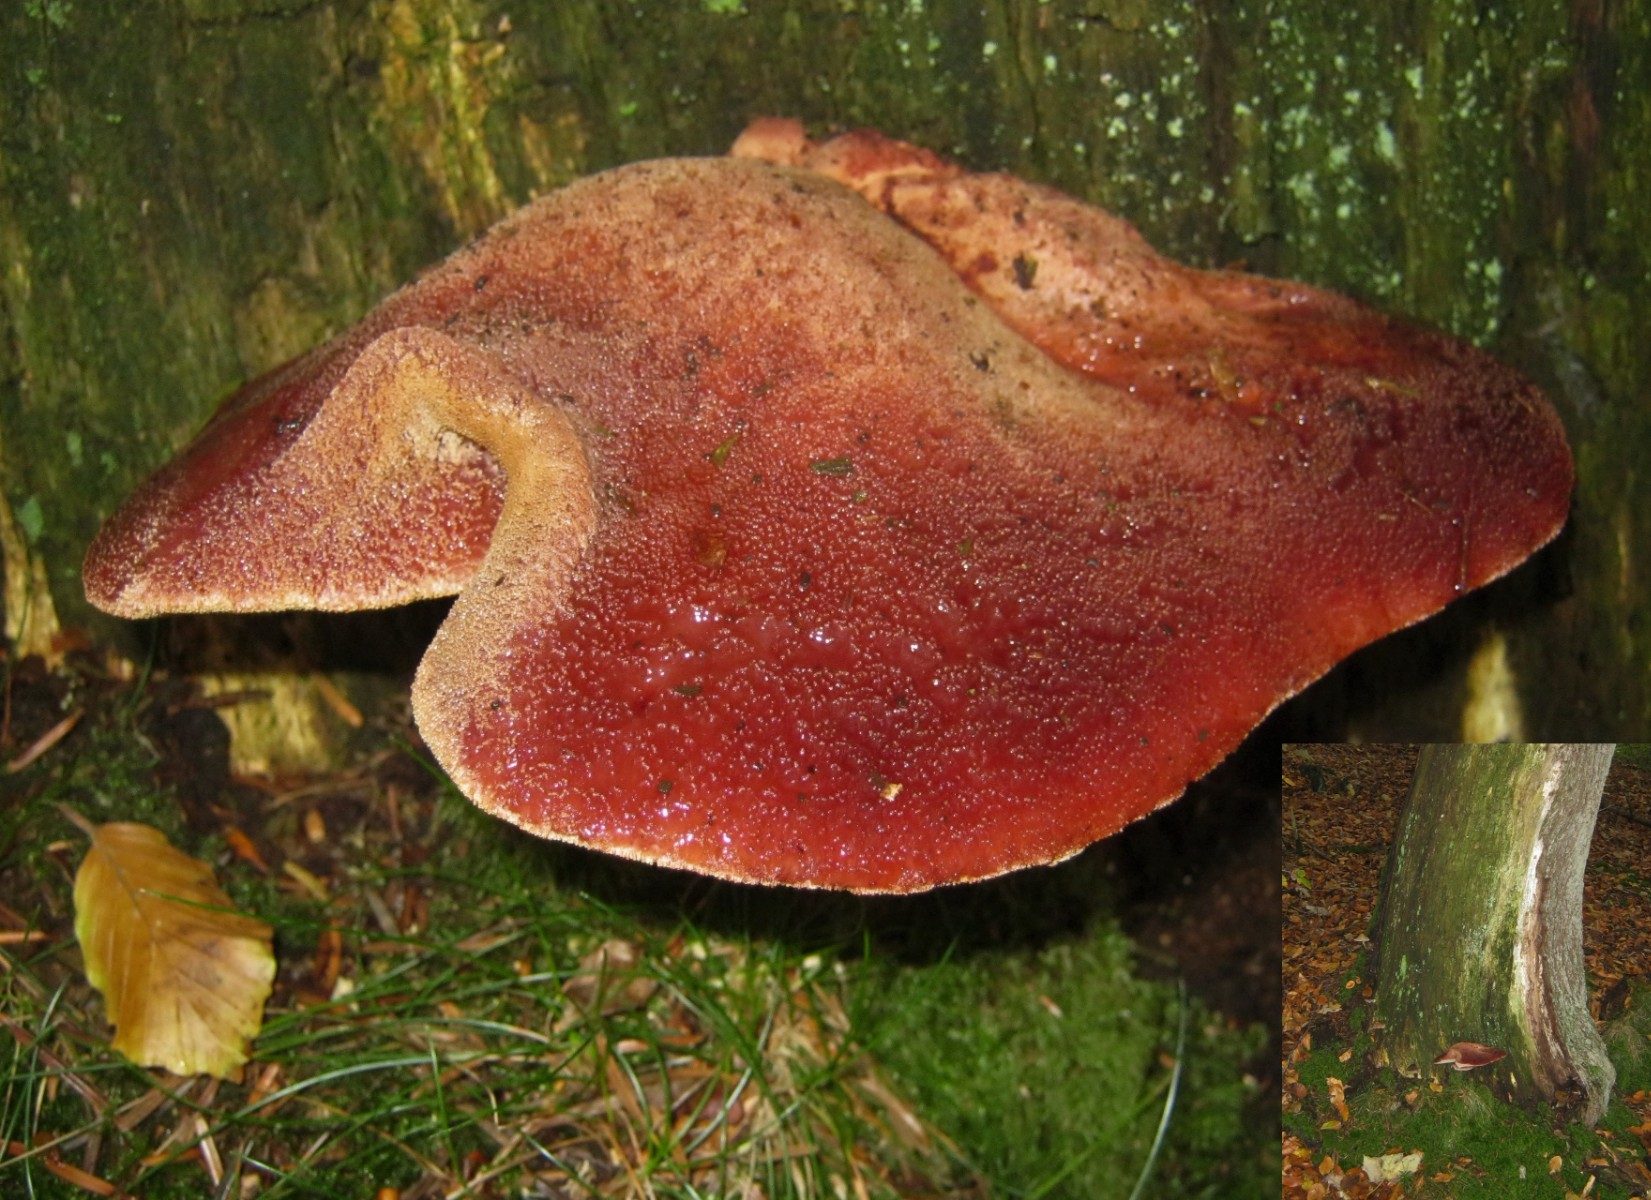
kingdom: Fungi
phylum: Basidiomycota
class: Agaricomycetes
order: Agaricales
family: Fistulinaceae
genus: Fistulina
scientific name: Fistulina hepatica
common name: oksetunge
